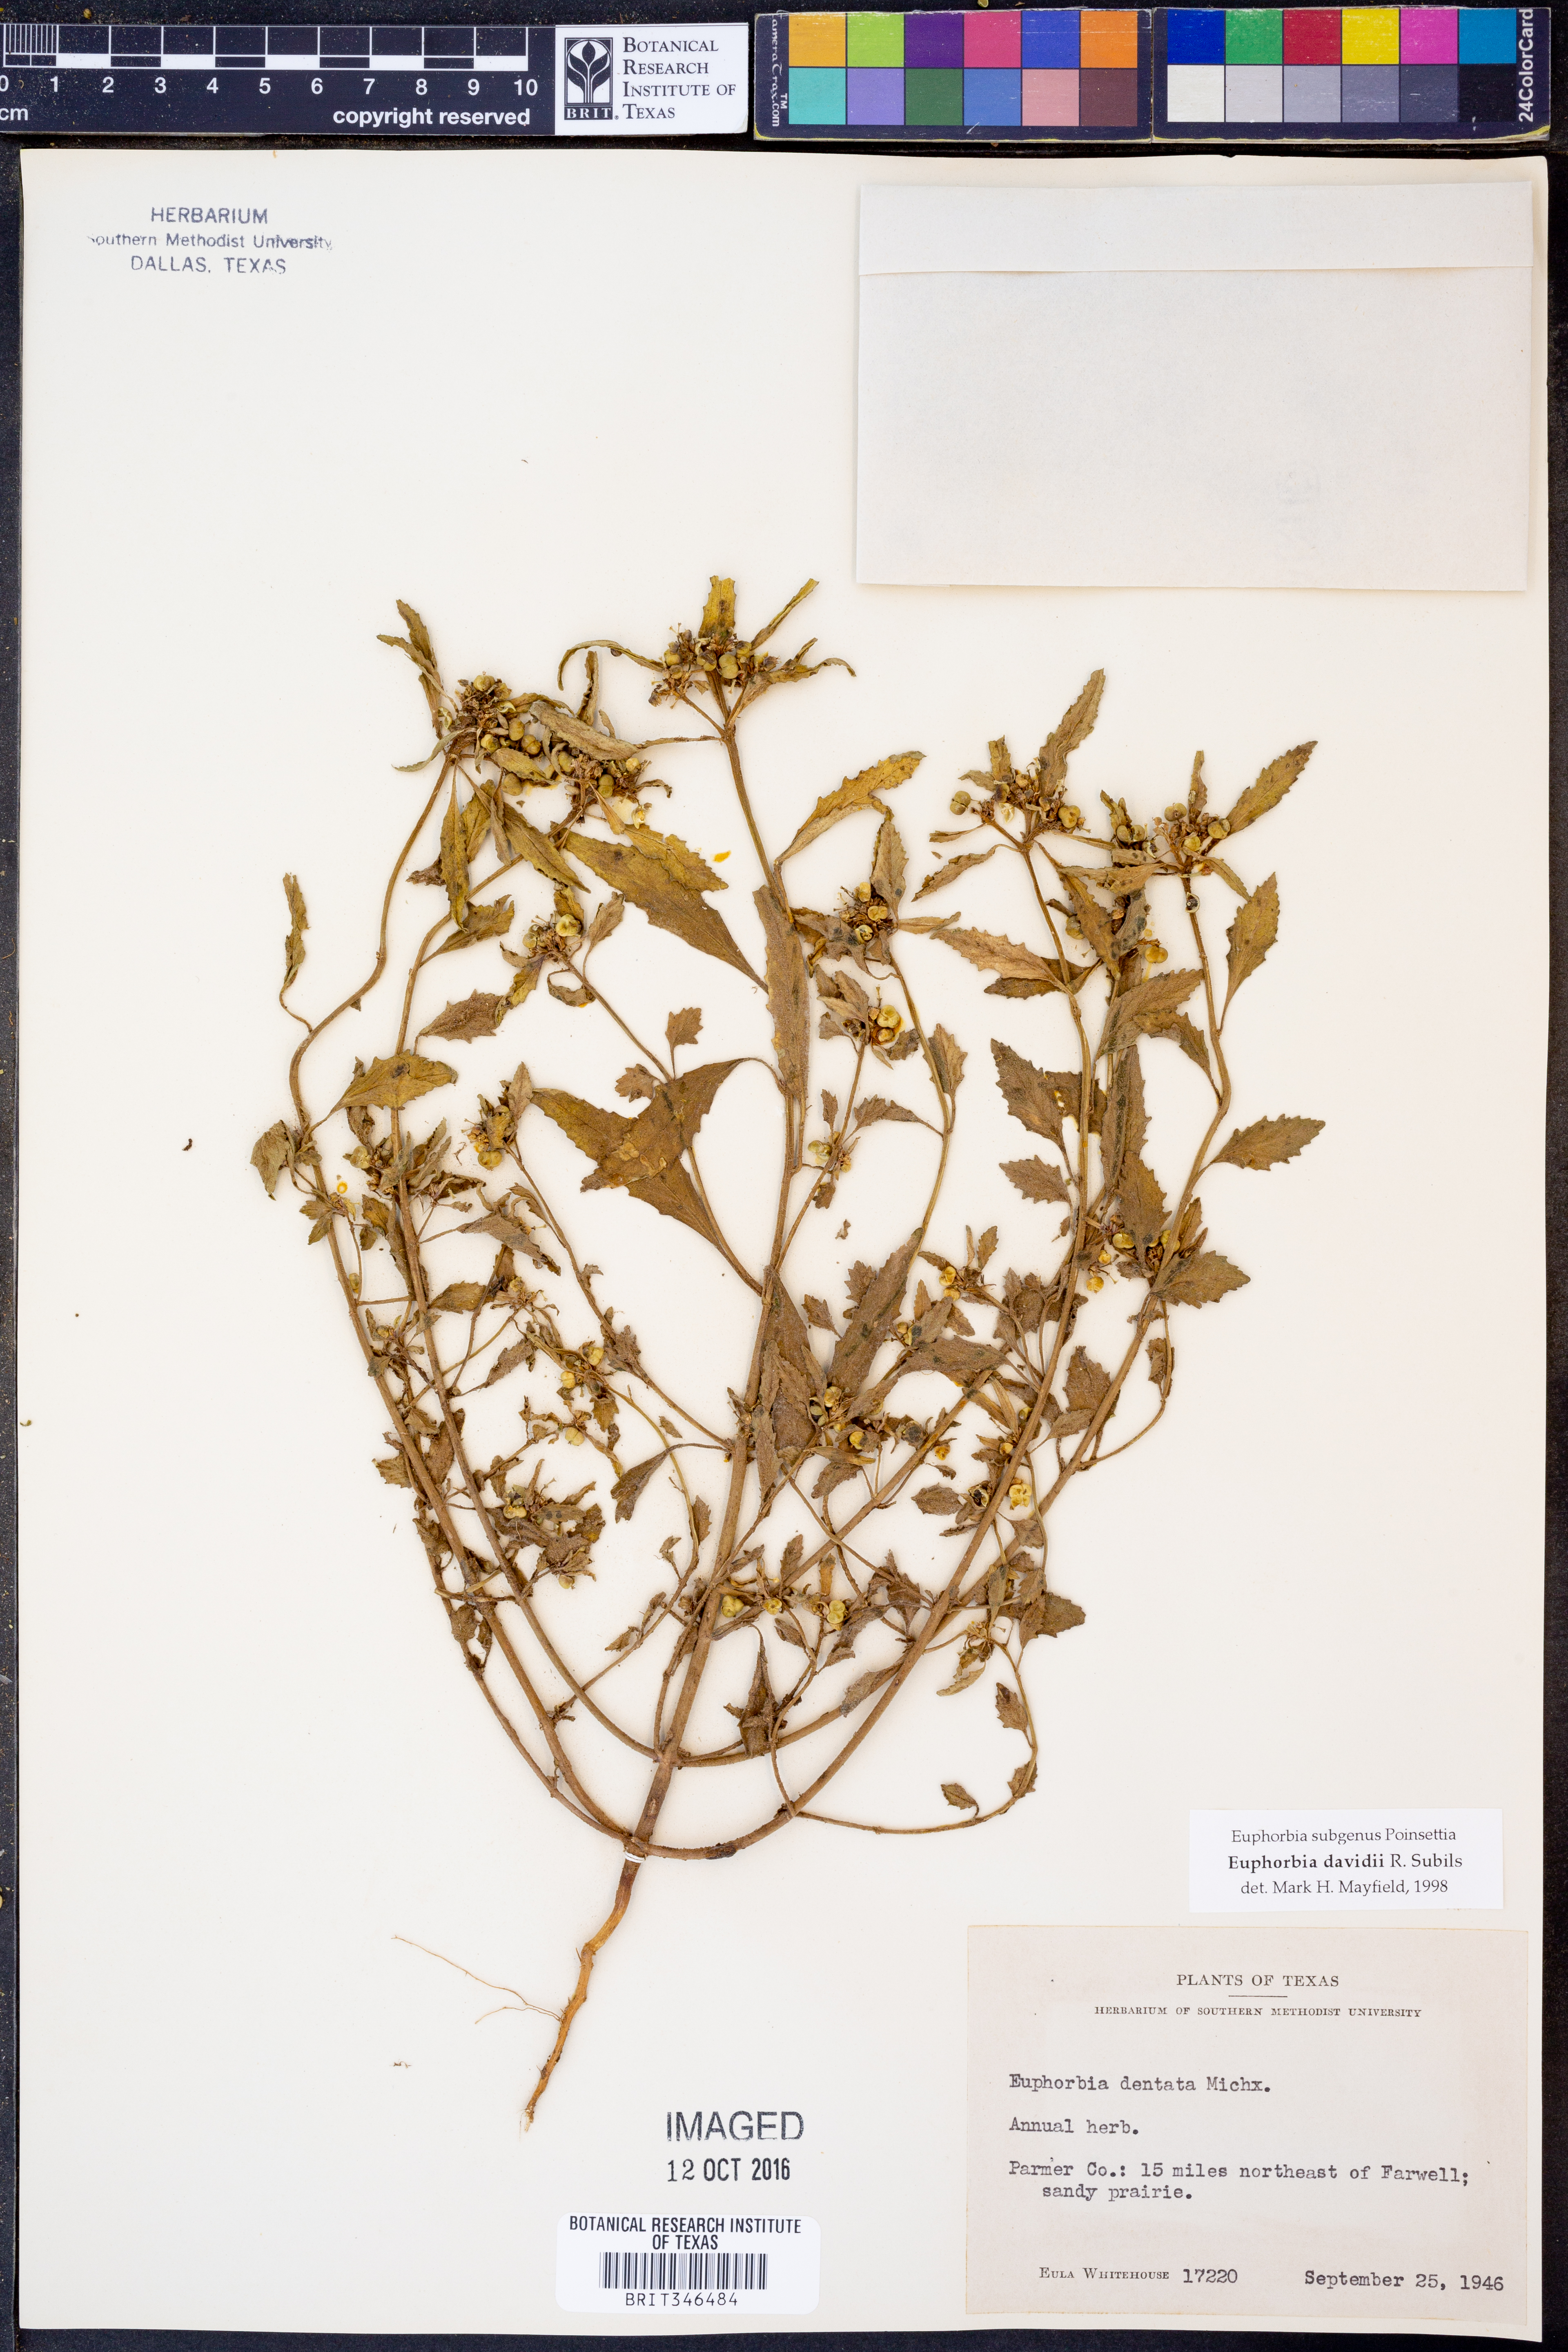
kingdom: Plantae
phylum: Tracheophyta
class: Magnoliopsida
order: Malpighiales
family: Euphorbiaceae
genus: Euphorbia
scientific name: Euphorbia davidii
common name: David's spurge
